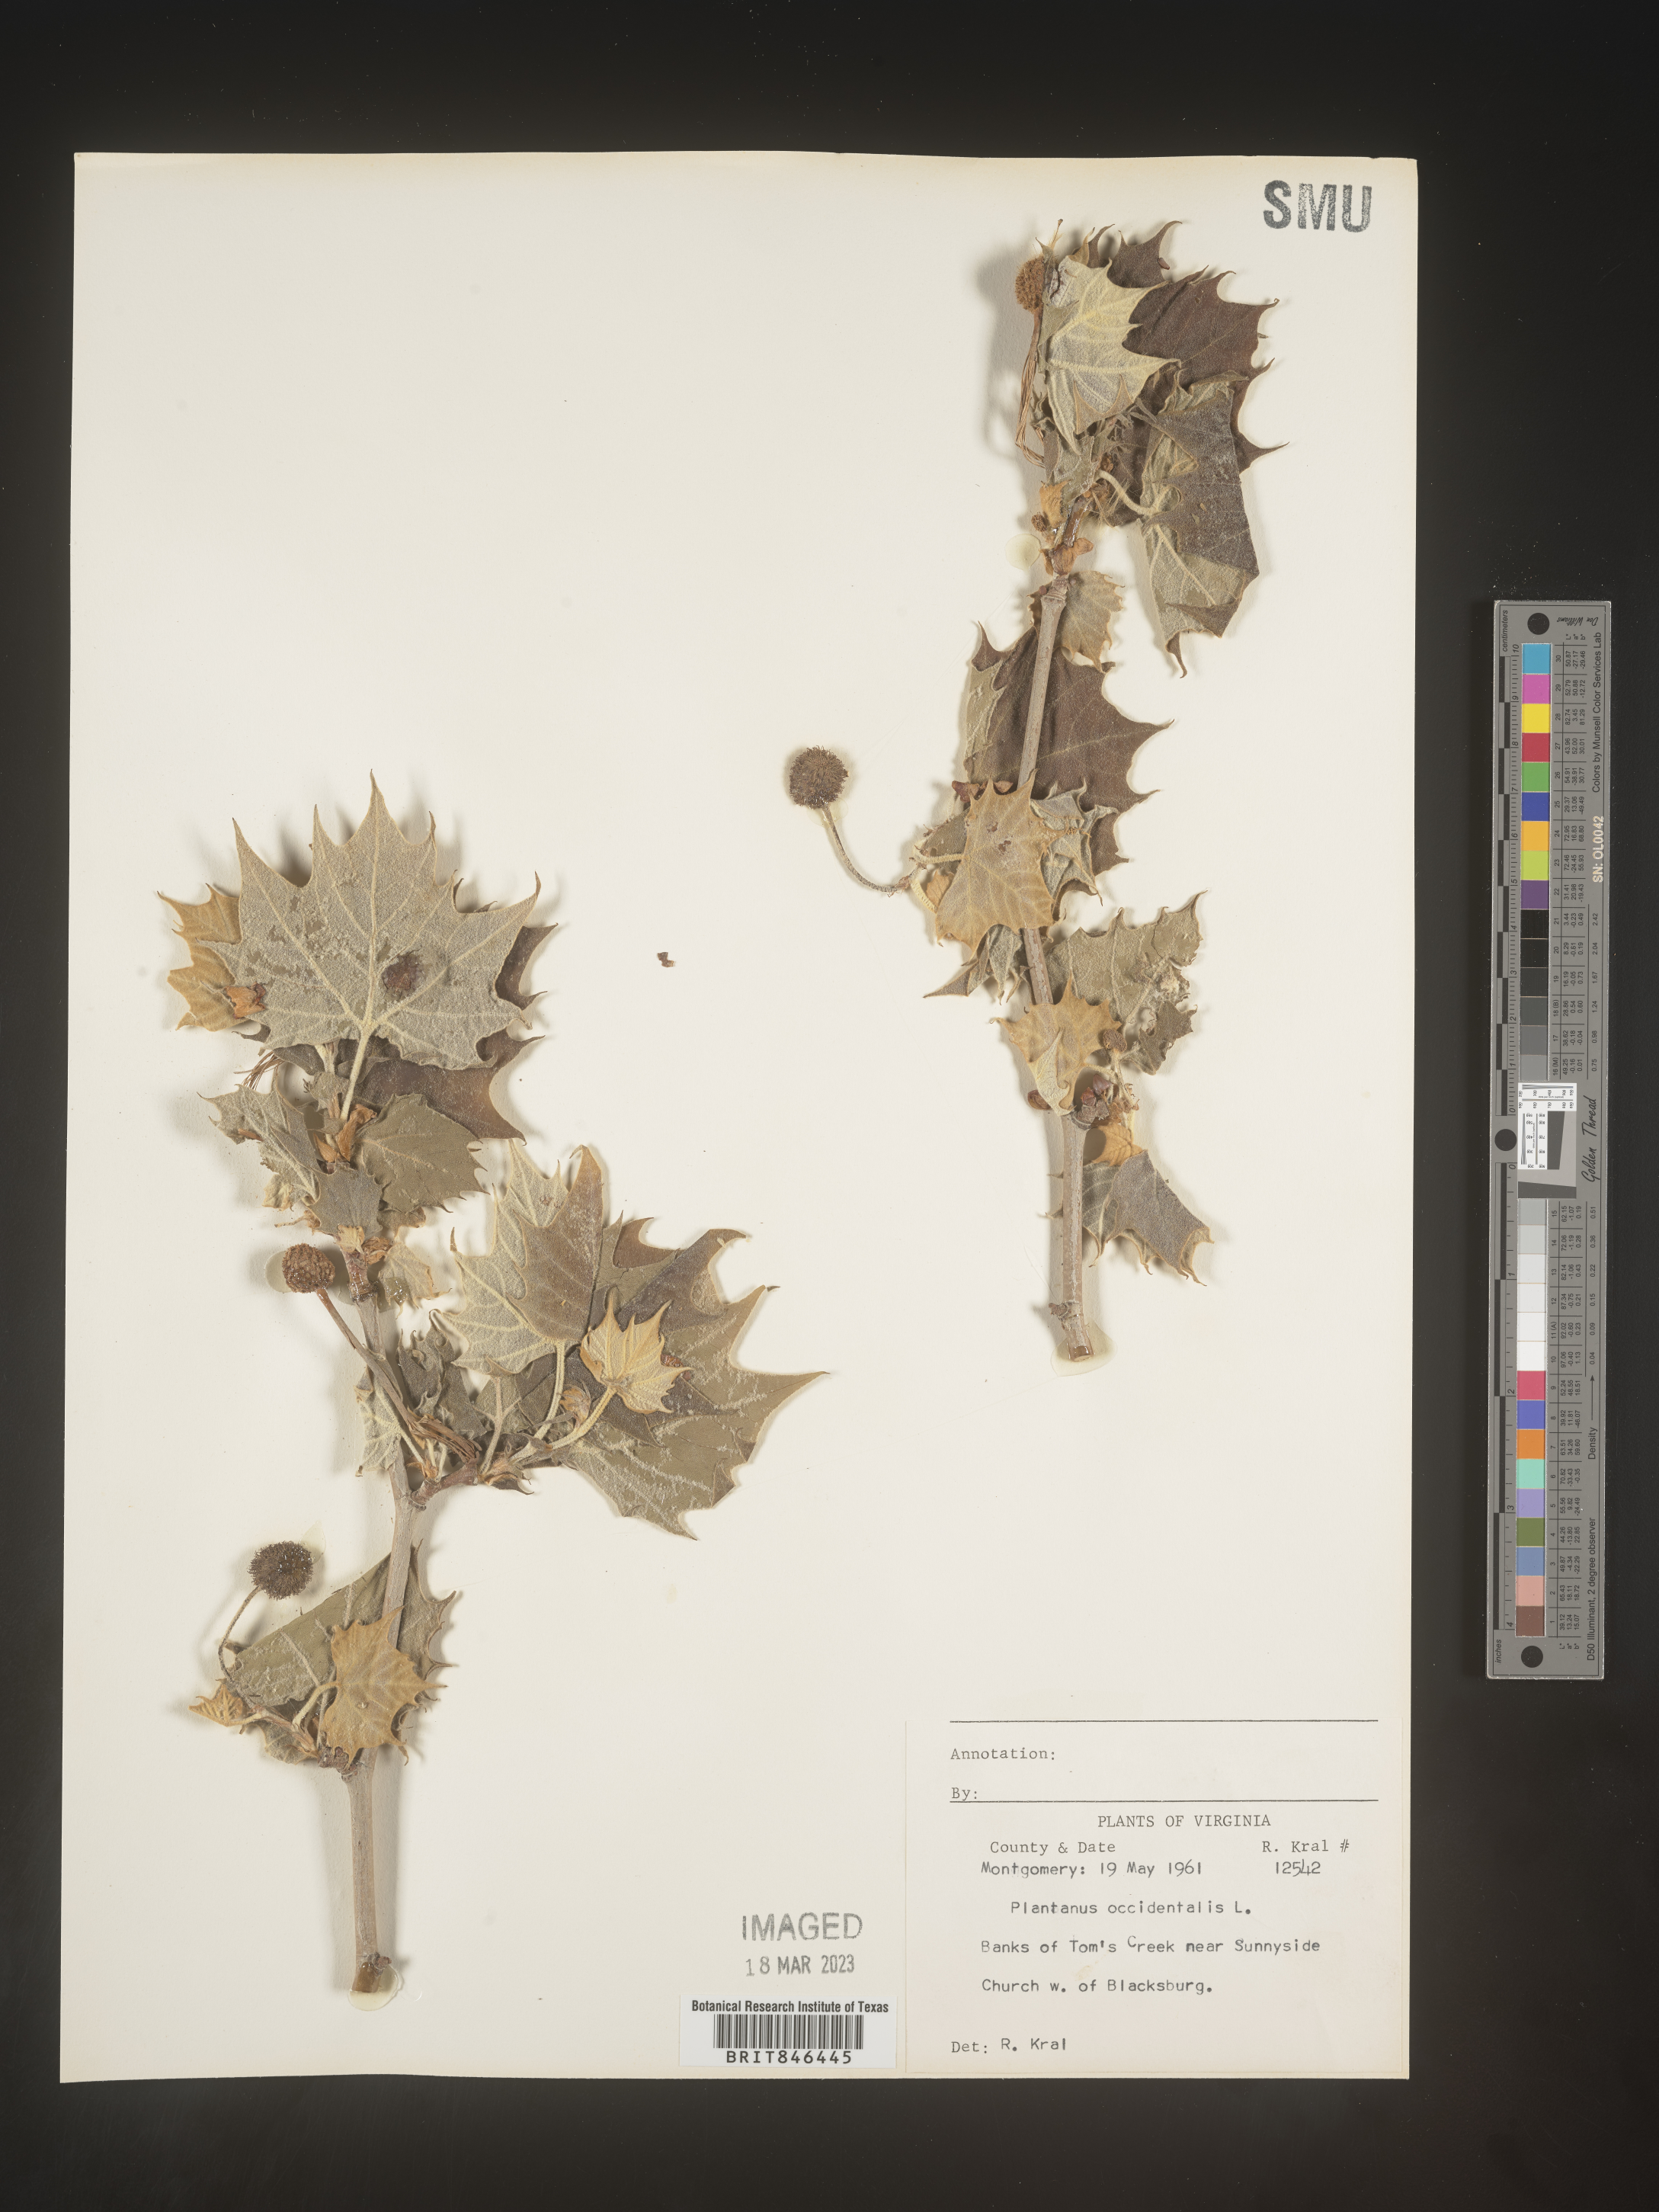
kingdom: Plantae
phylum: Tracheophyta
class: Magnoliopsida
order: Proteales
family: Platanaceae
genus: Platanus
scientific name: Platanus occidentalis
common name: American sycamore
